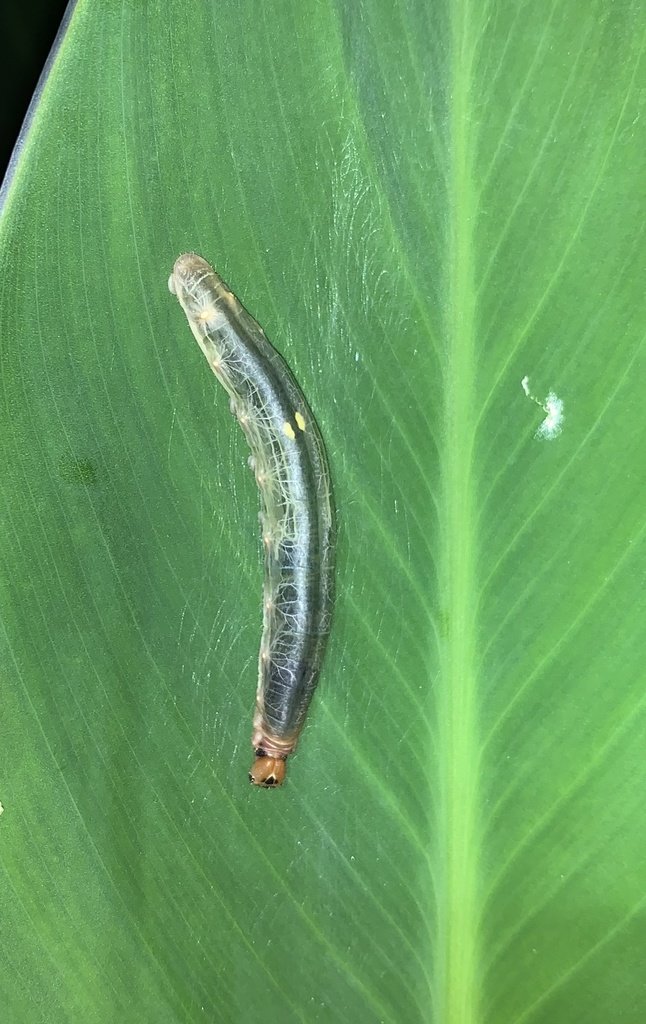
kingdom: Animalia
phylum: Arthropoda
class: Insecta
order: Lepidoptera
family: Hesperiidae
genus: Calpodes
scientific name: Calpodes ethlius
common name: Brazilian Skipper
